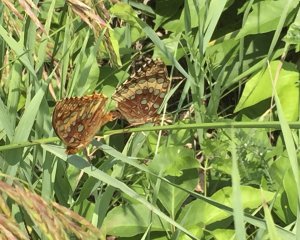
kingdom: Animalia
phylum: Arthropoda
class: Insecta
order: Lepidoptera
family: Nymphalidae
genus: Speyeria
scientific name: Speyeria cybele
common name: Great Spangled Fritillary
